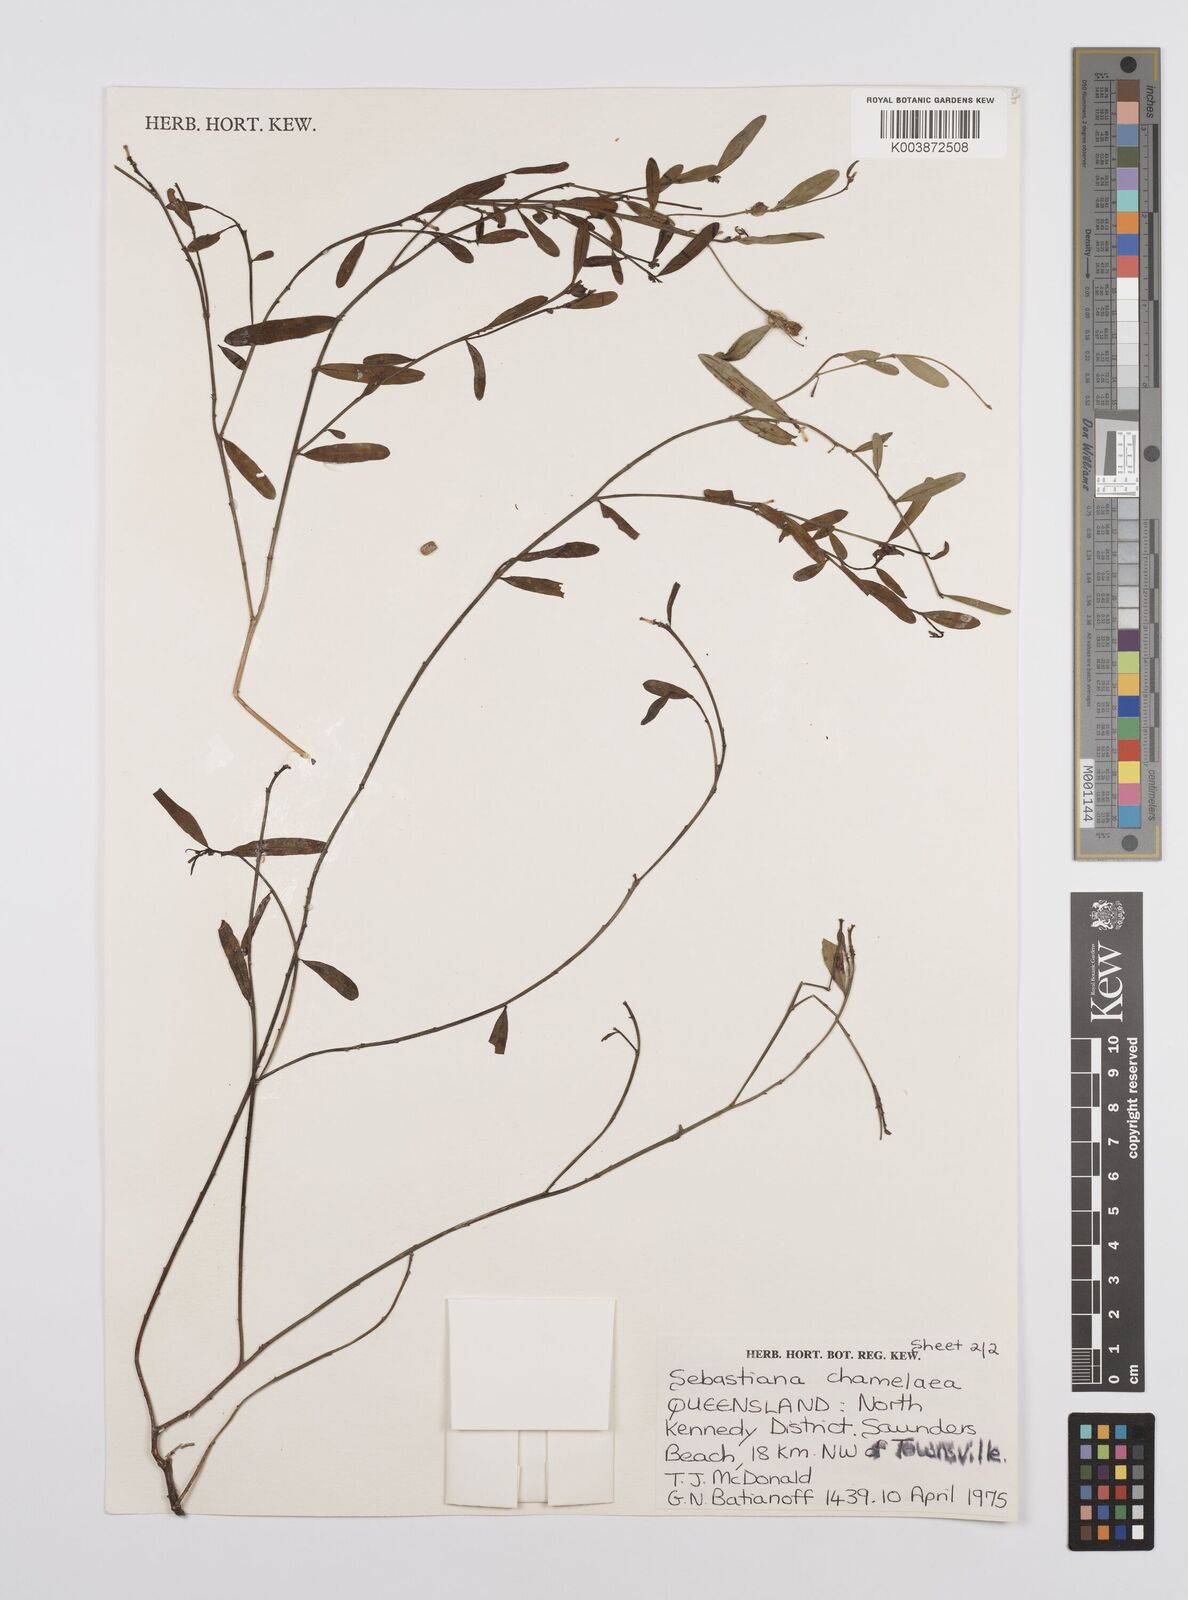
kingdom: Plantae
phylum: Tracheophyta
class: Magnoliopsida
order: Malpighiales
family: Euphorbiaceae
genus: Microstachys
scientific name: Microstachys chamaelea
